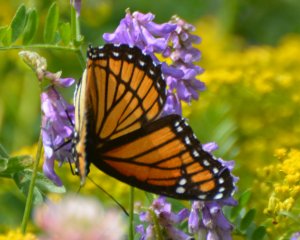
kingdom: Animalia
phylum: Arthropoda
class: Insecta
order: Lepidoptera
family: Nymphalidae
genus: Limenitis
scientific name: Limenitis archippus
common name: Viceroy
